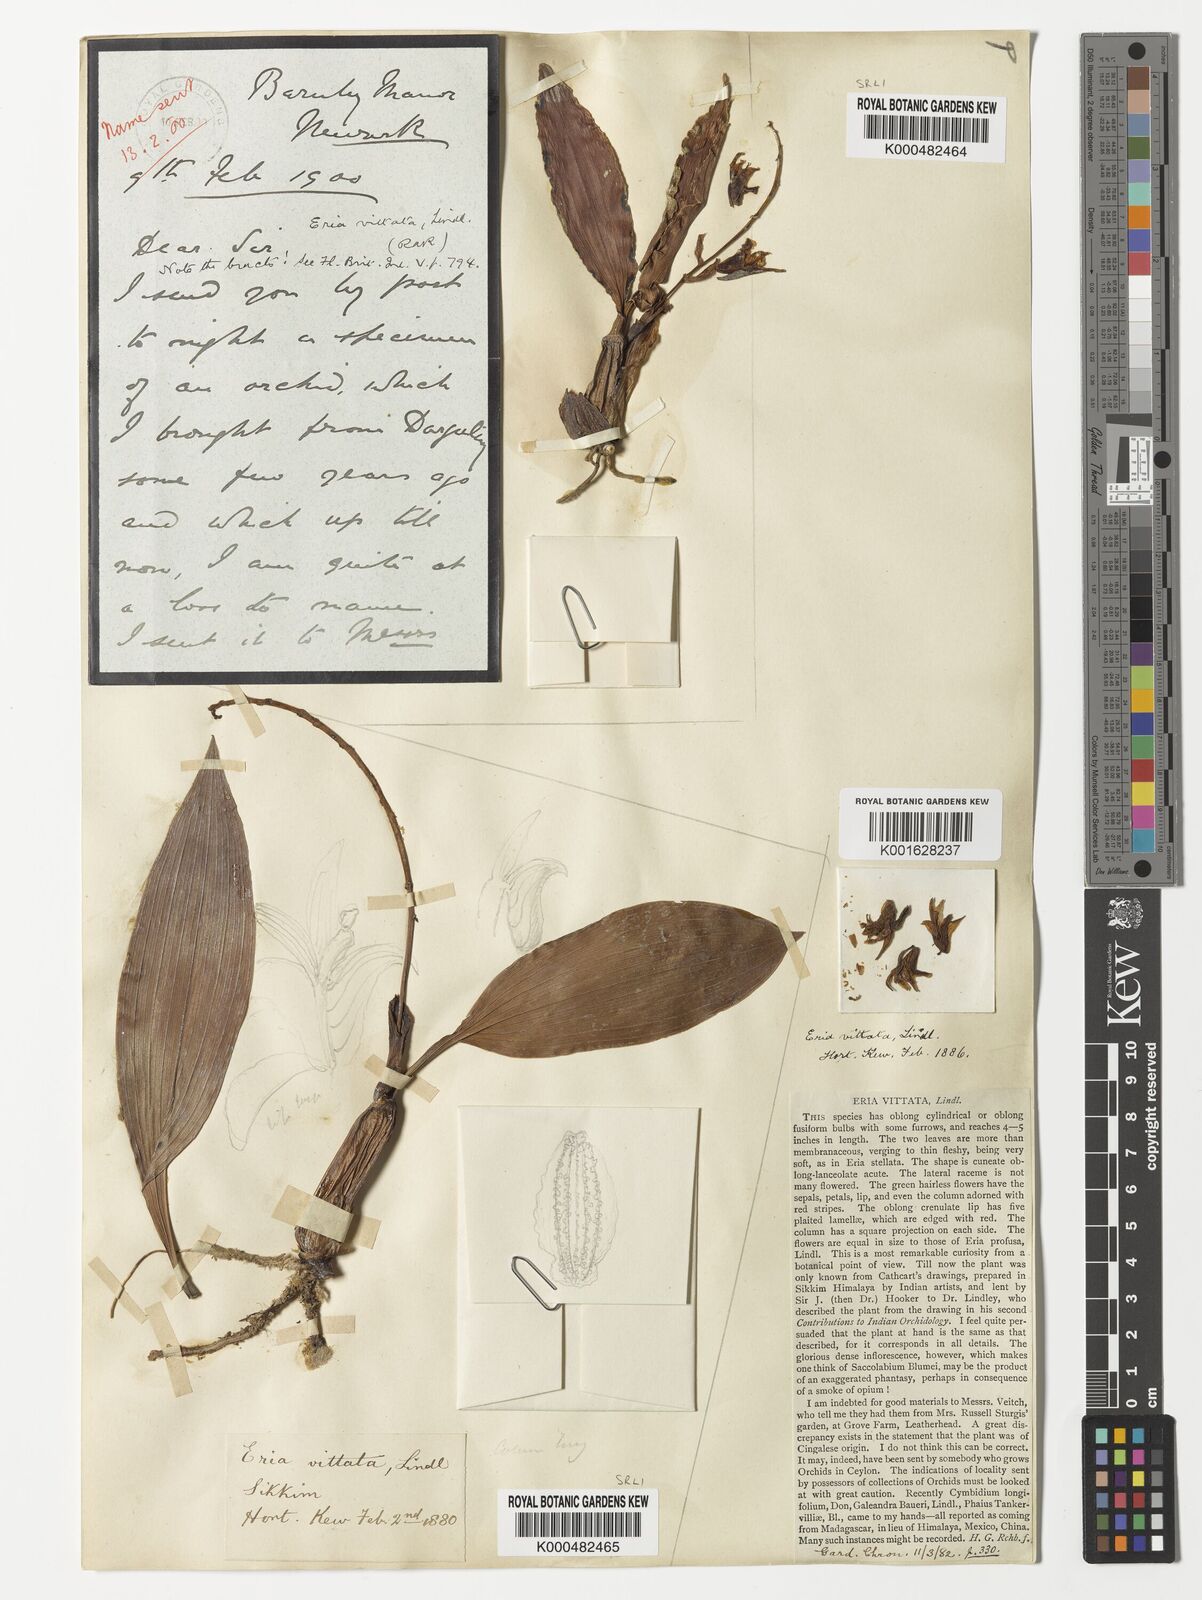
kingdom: Plantae
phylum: Tracheophyta
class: Liliopsida
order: Asparagales
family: Orchidaceae
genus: Eria
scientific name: Eria vittata
